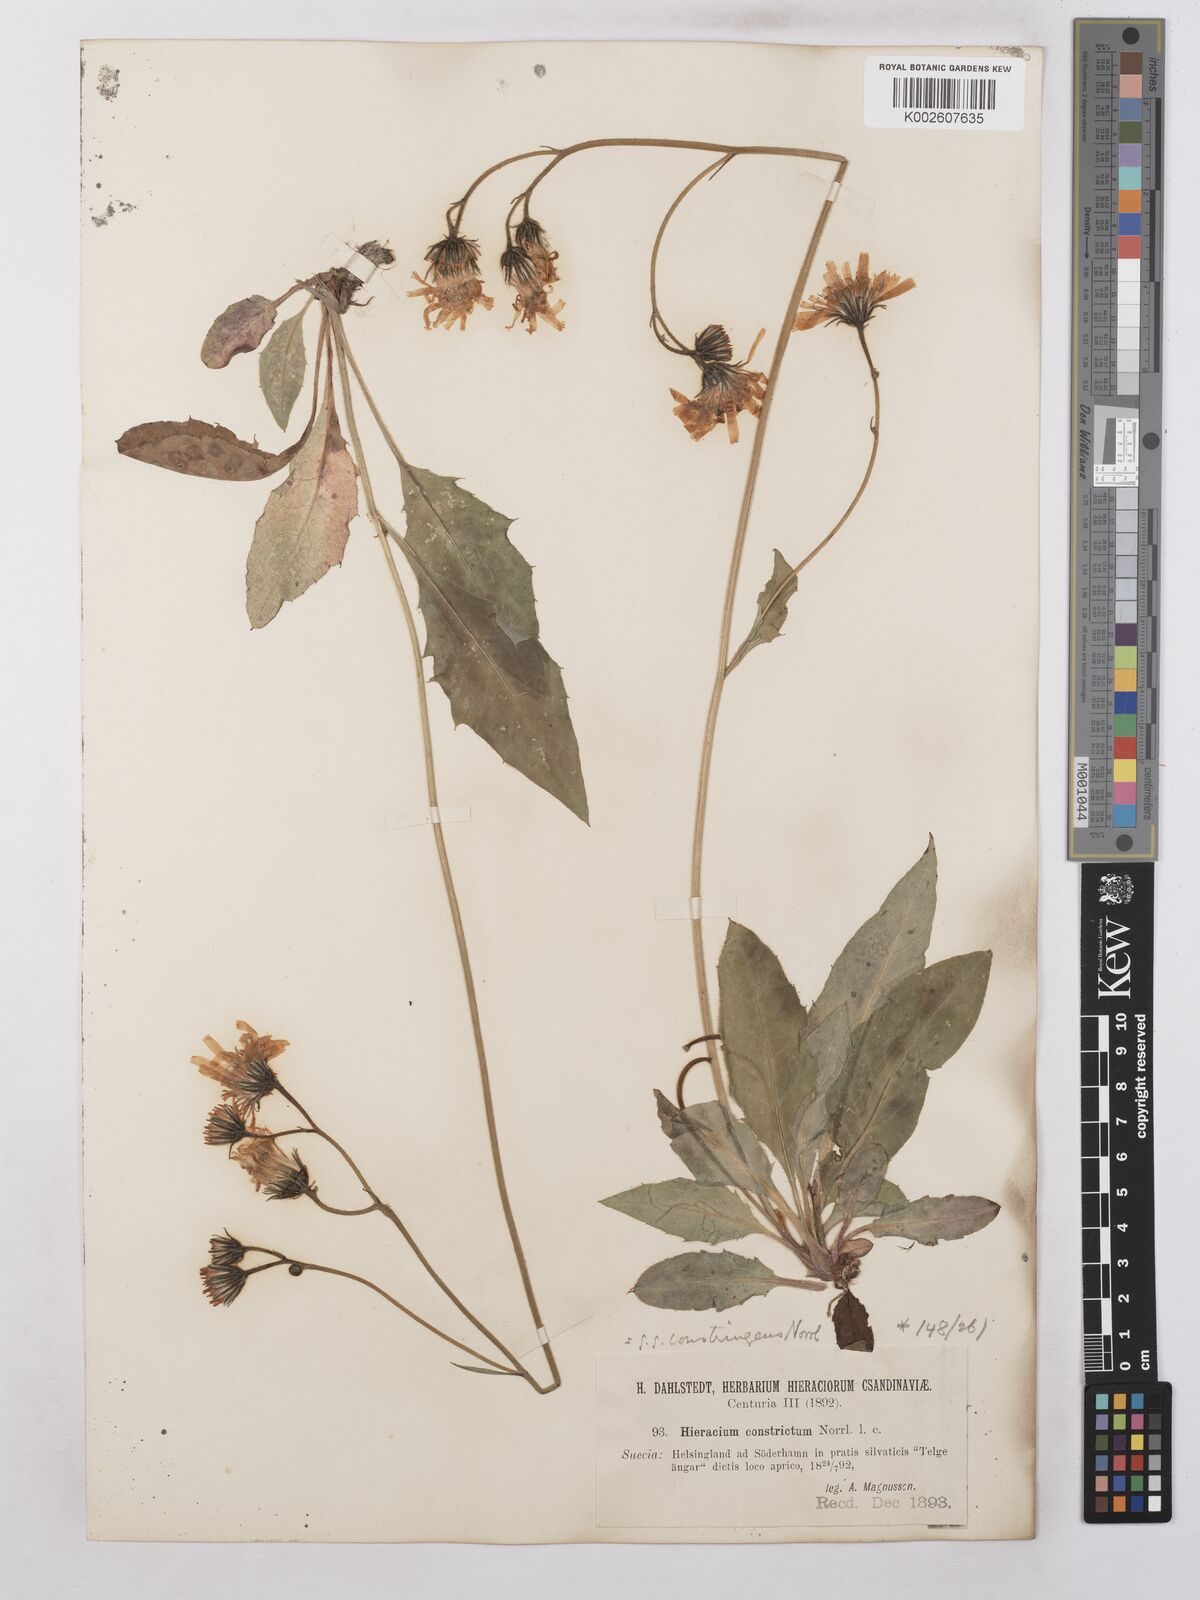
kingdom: Plantae
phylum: Tracheophyta
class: Magnoliopsida
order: Asterales
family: Asteraceae
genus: Hieracium
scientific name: Hieracium subramosum
